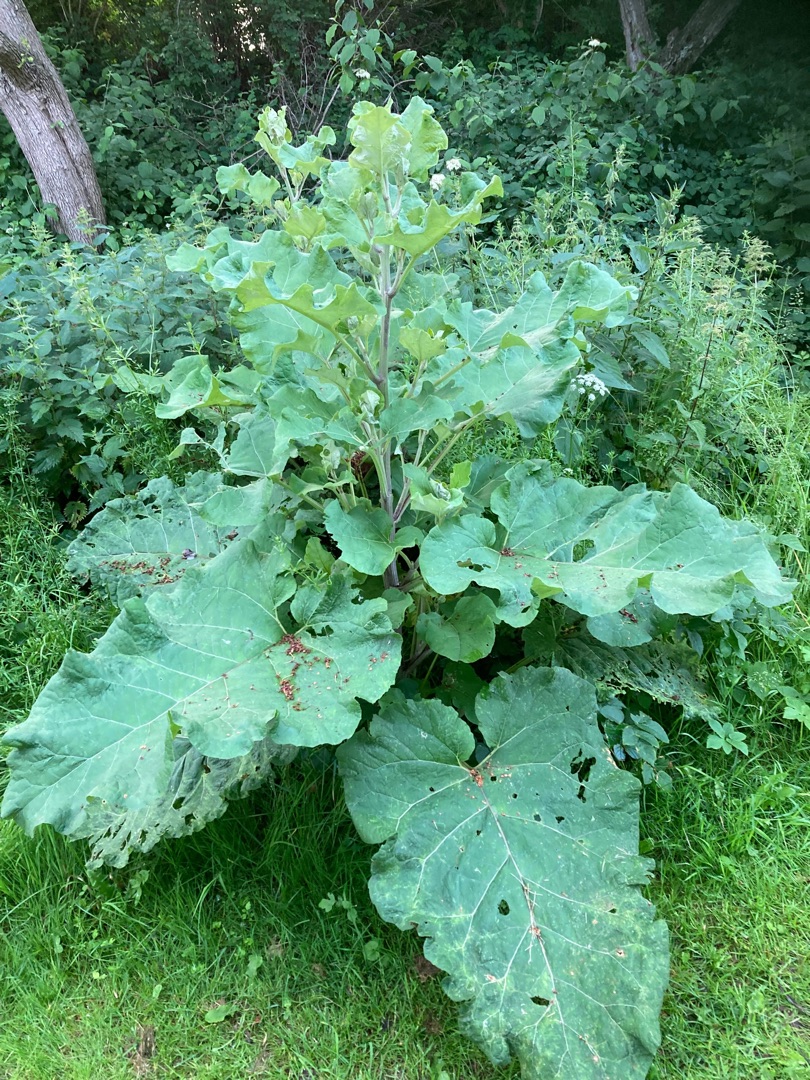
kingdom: Plantae
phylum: Tracheophyta
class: Magnoliopsida
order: Asterales
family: Asteraceae
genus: Arctium
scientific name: Arctium lappa
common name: Glat burre
